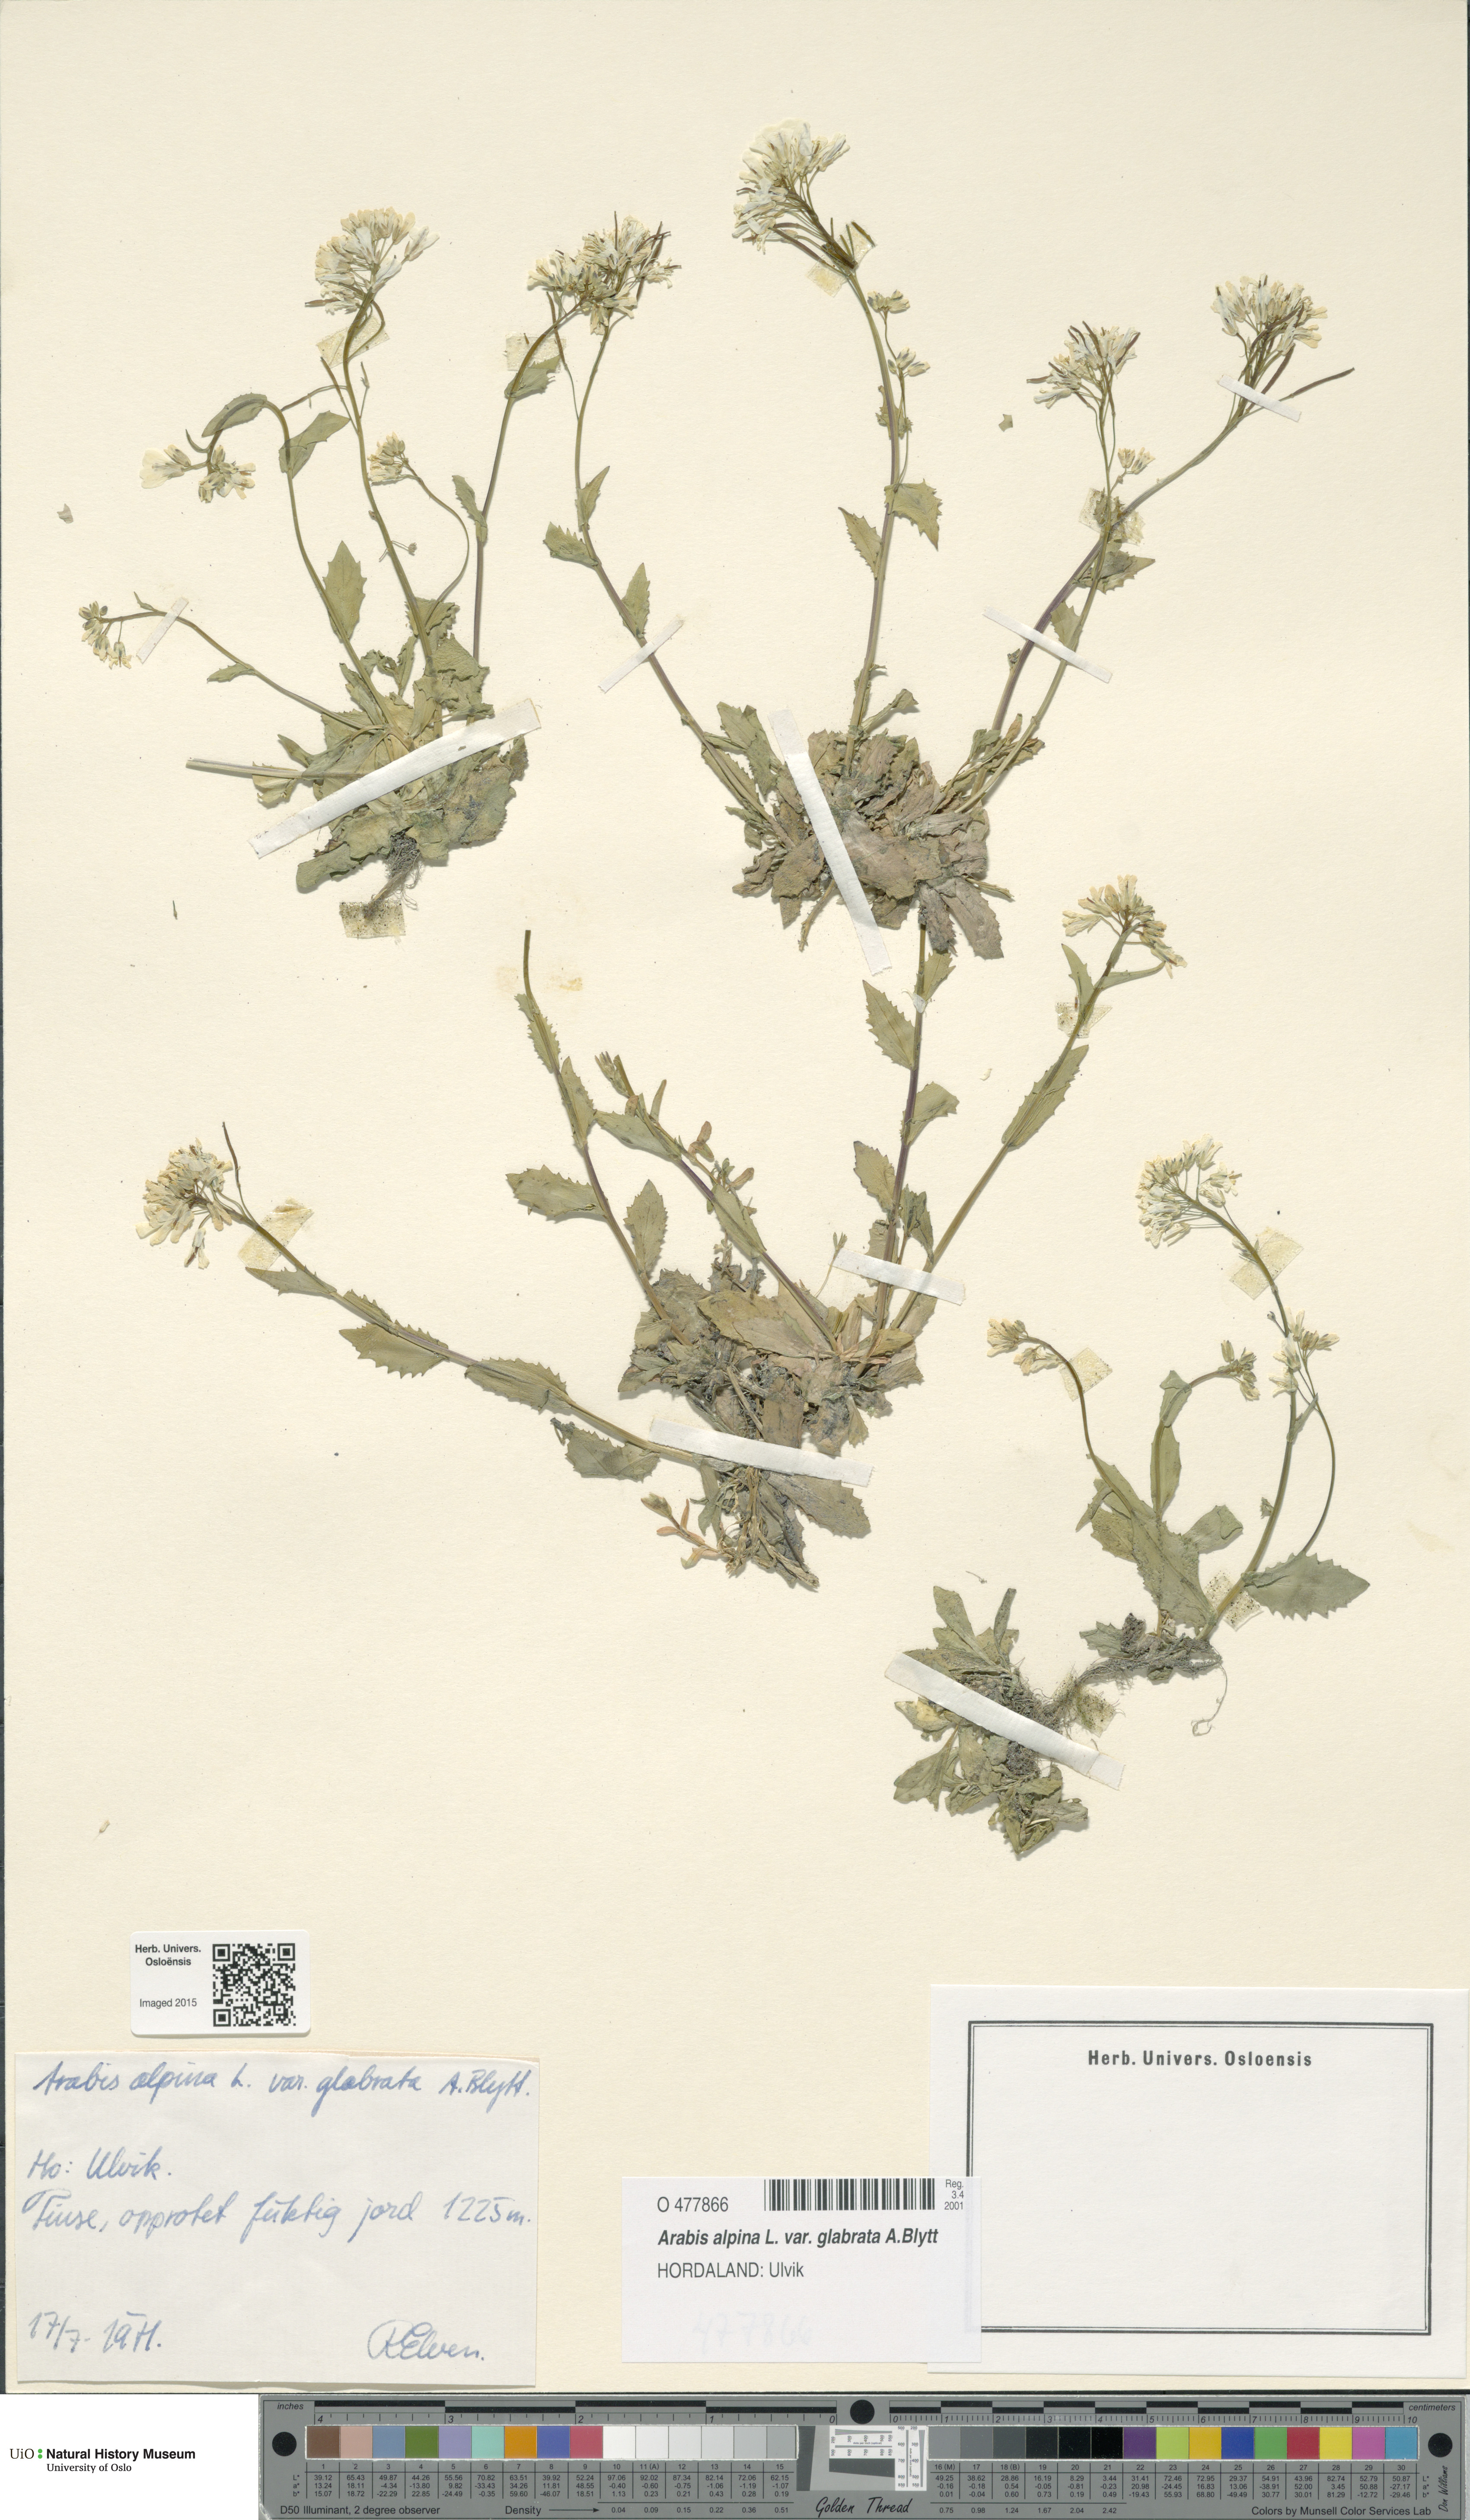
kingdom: Plantae
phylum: Tracheophyta
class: Magnoliopsida
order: Brassicales
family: Brassicaceae
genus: Arabis
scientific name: Arabis alpina
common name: Alpine rock-cress
